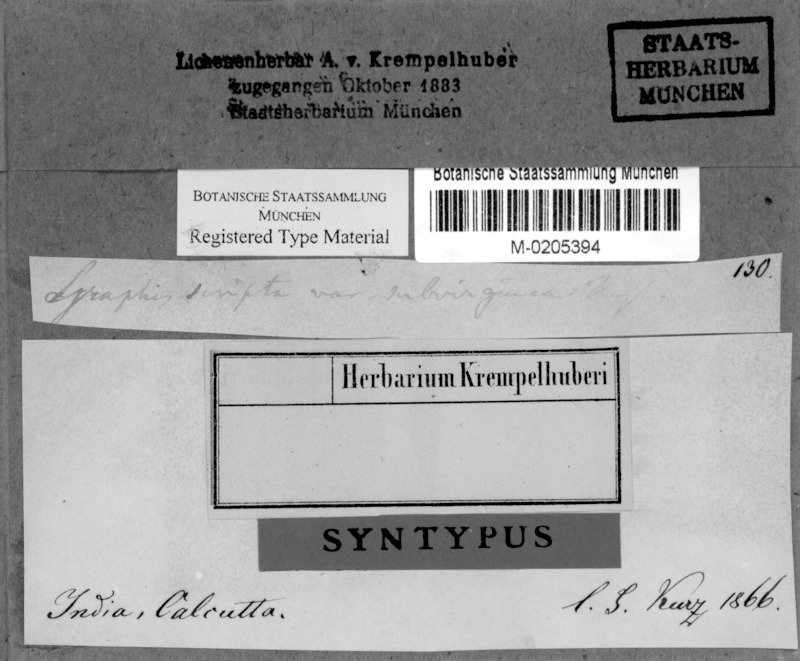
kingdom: Fungi
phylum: Ascomycota
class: Lecanoromycetes
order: Ostropales
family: Graphidaceae
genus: Graphis
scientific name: Graphis scripta
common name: Script lichen
